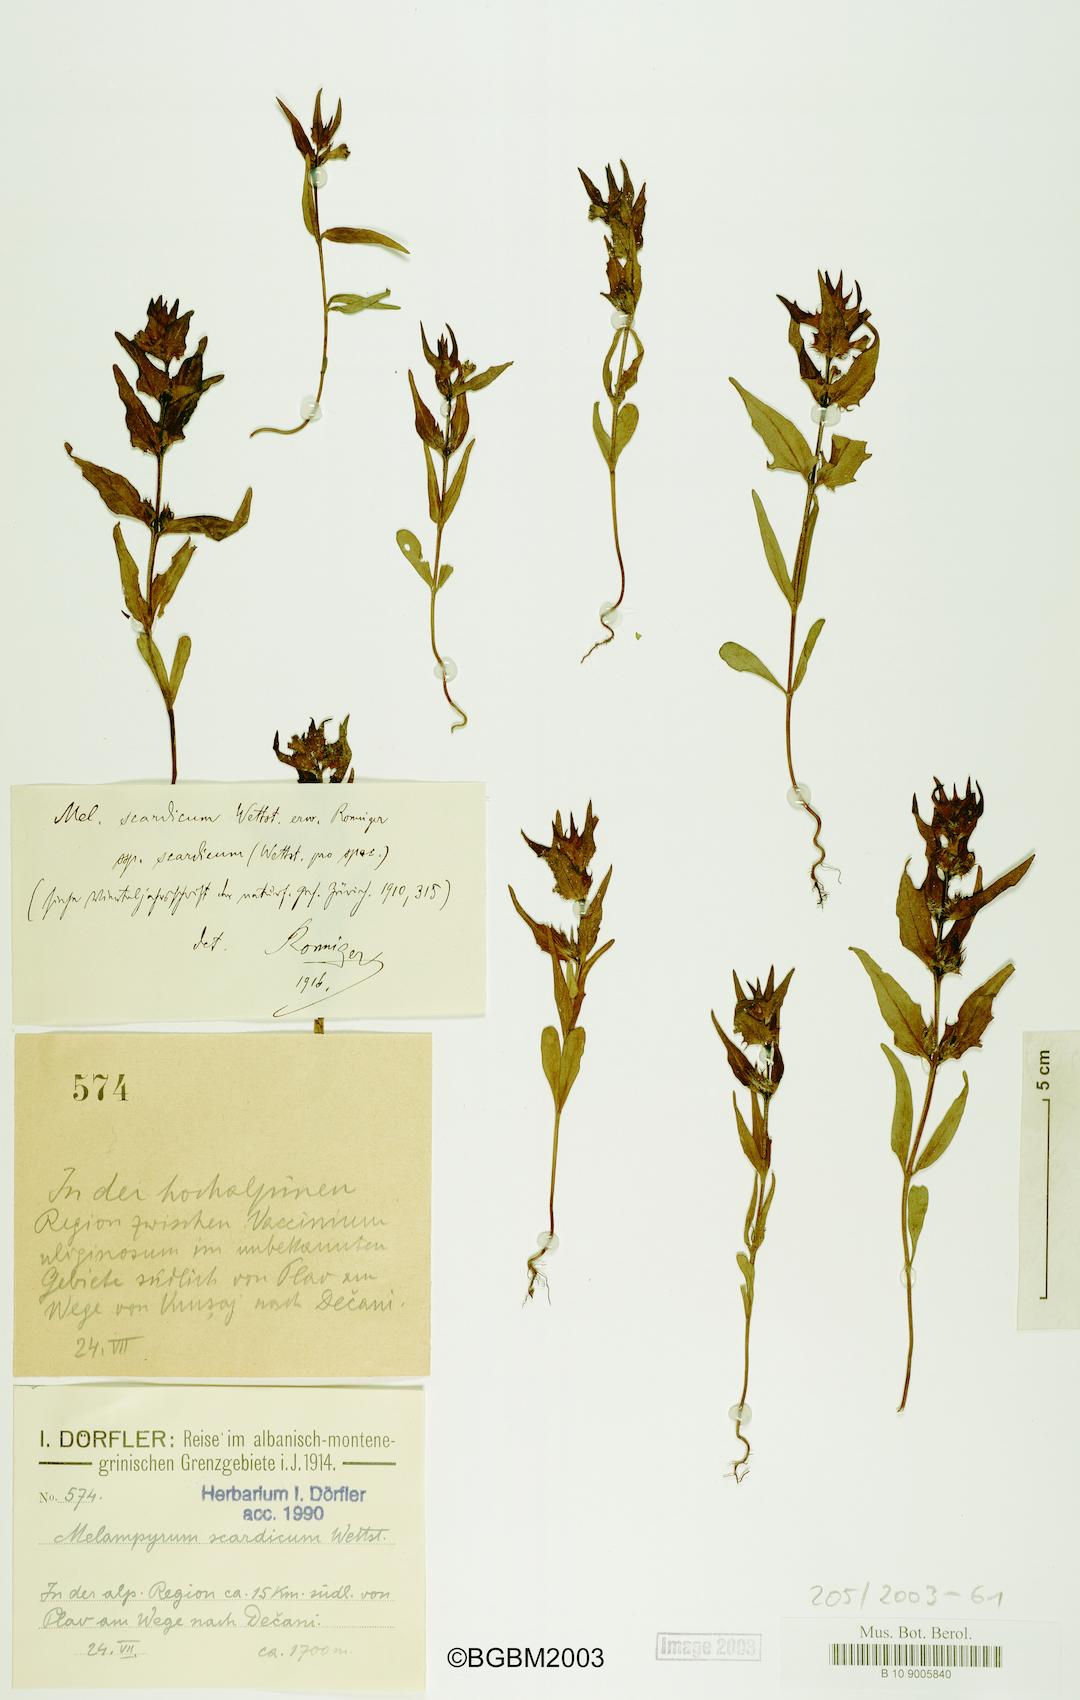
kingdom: Plantae
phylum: Tracheophyta
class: Magnoliopsida
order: Lamiales
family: Orobanchaceae
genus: Melampyrum
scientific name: Melampyrum scardicum
